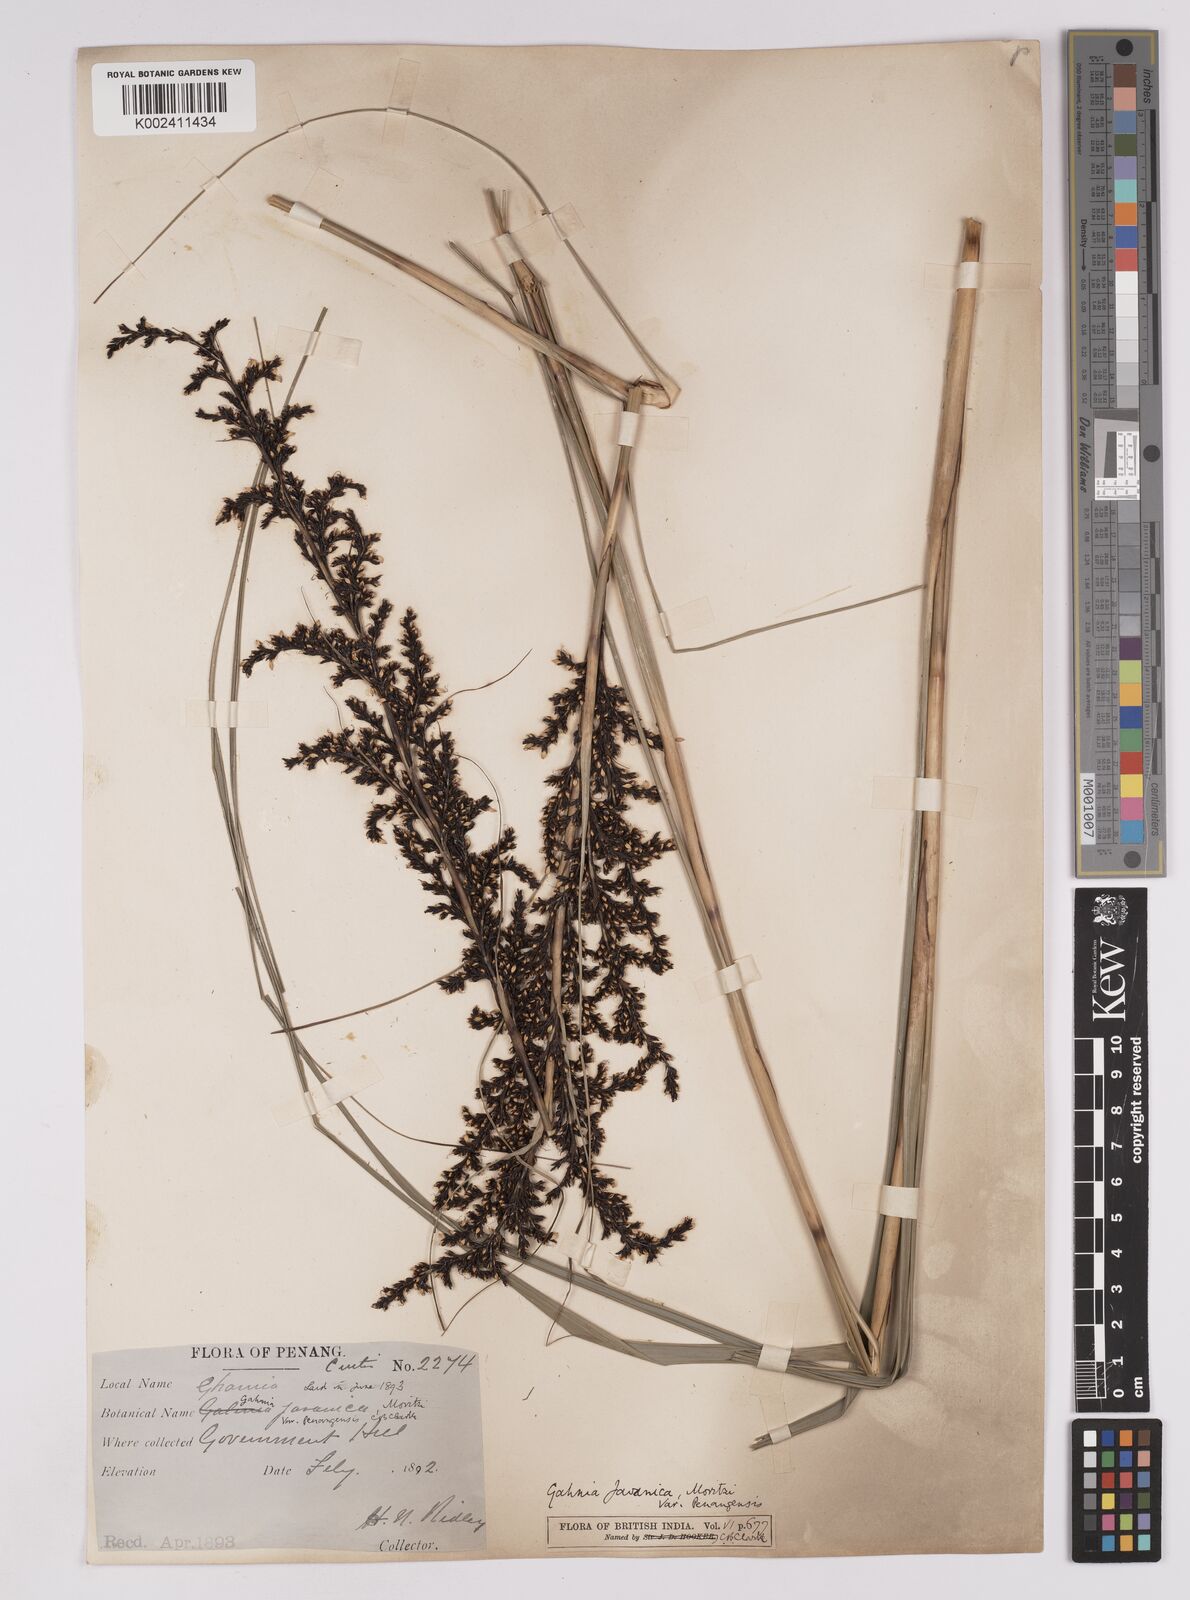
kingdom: Plantae
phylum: Tracheophyta
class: Liliopsida
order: Poales
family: Cyperaceae
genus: Gahnia
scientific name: Gahnia baniensis
